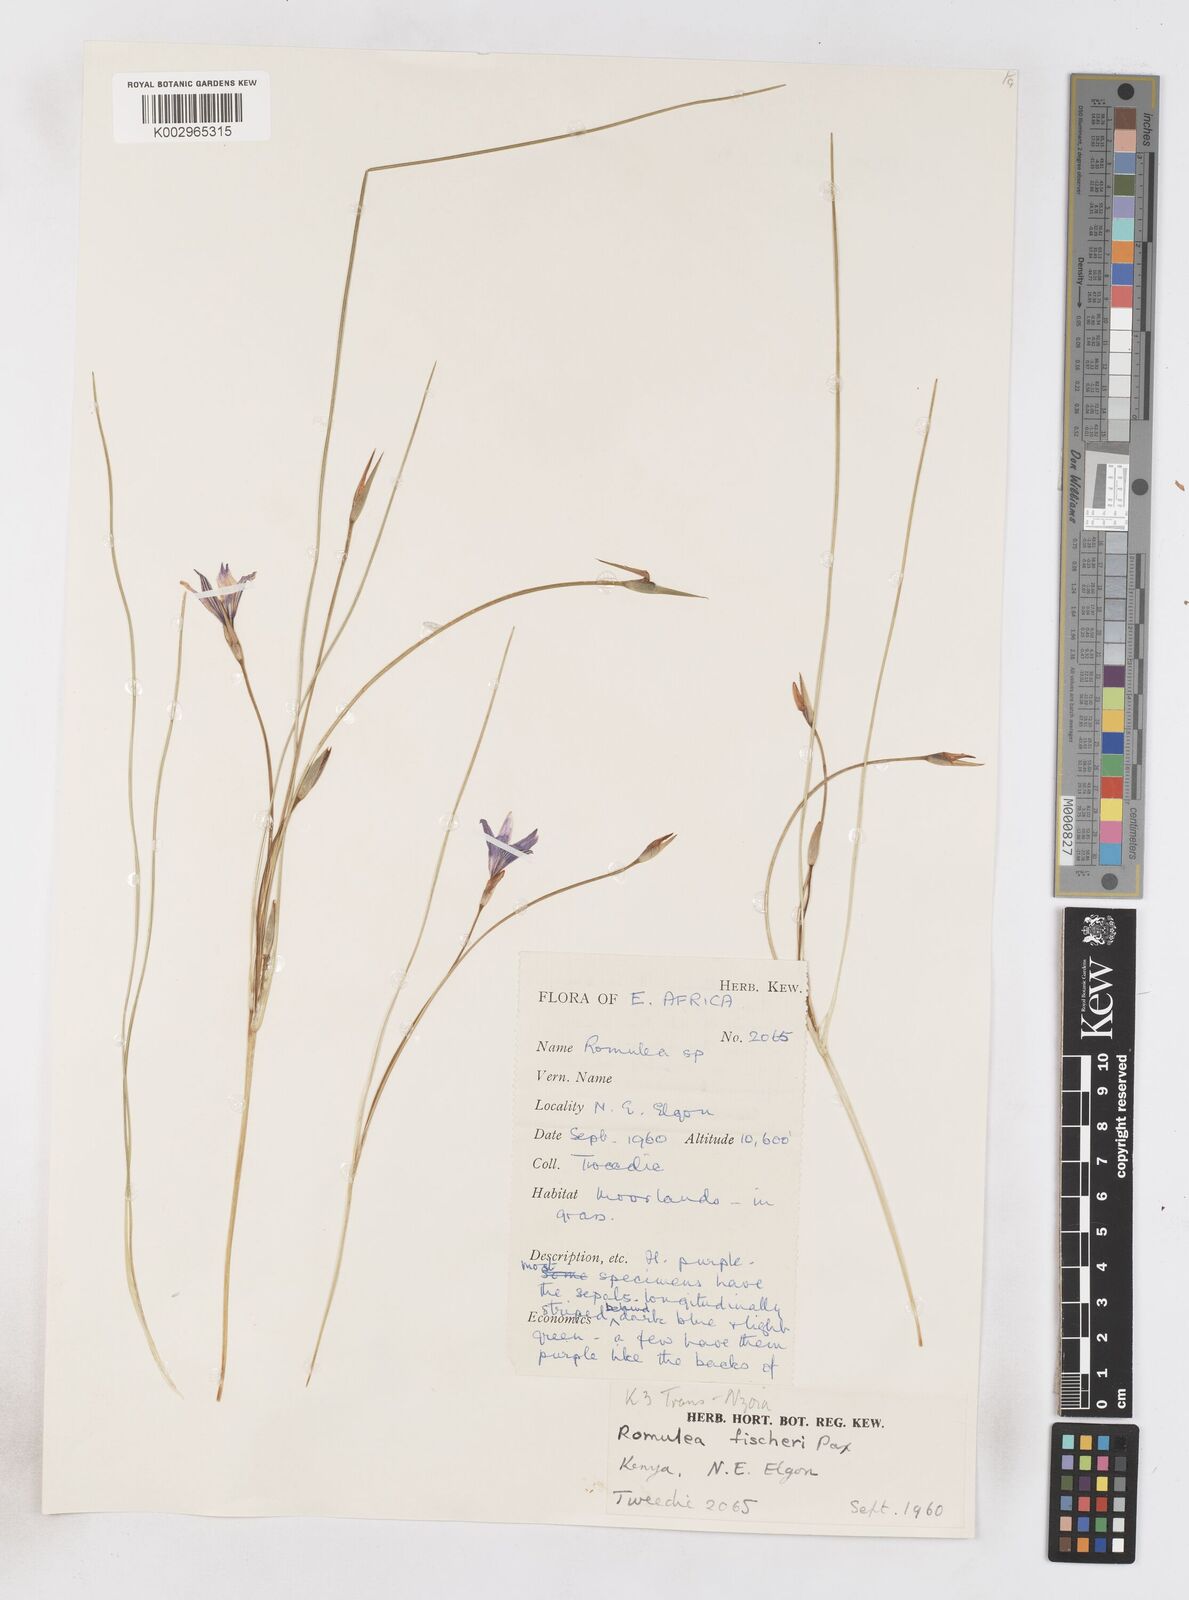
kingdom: Plantae
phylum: Tracheophyta
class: Liliopsida
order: Asparagales
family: Iridaceae
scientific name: Iridaceae
